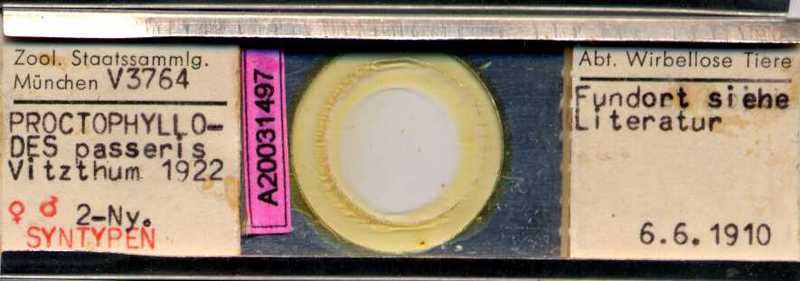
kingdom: Animalia
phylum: Arthropoda
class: Arachnida
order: Sarcoptiformes
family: Proctophyllodidae
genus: Proctophyllodes
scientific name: Proctophyllodes troncatus
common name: Mite
